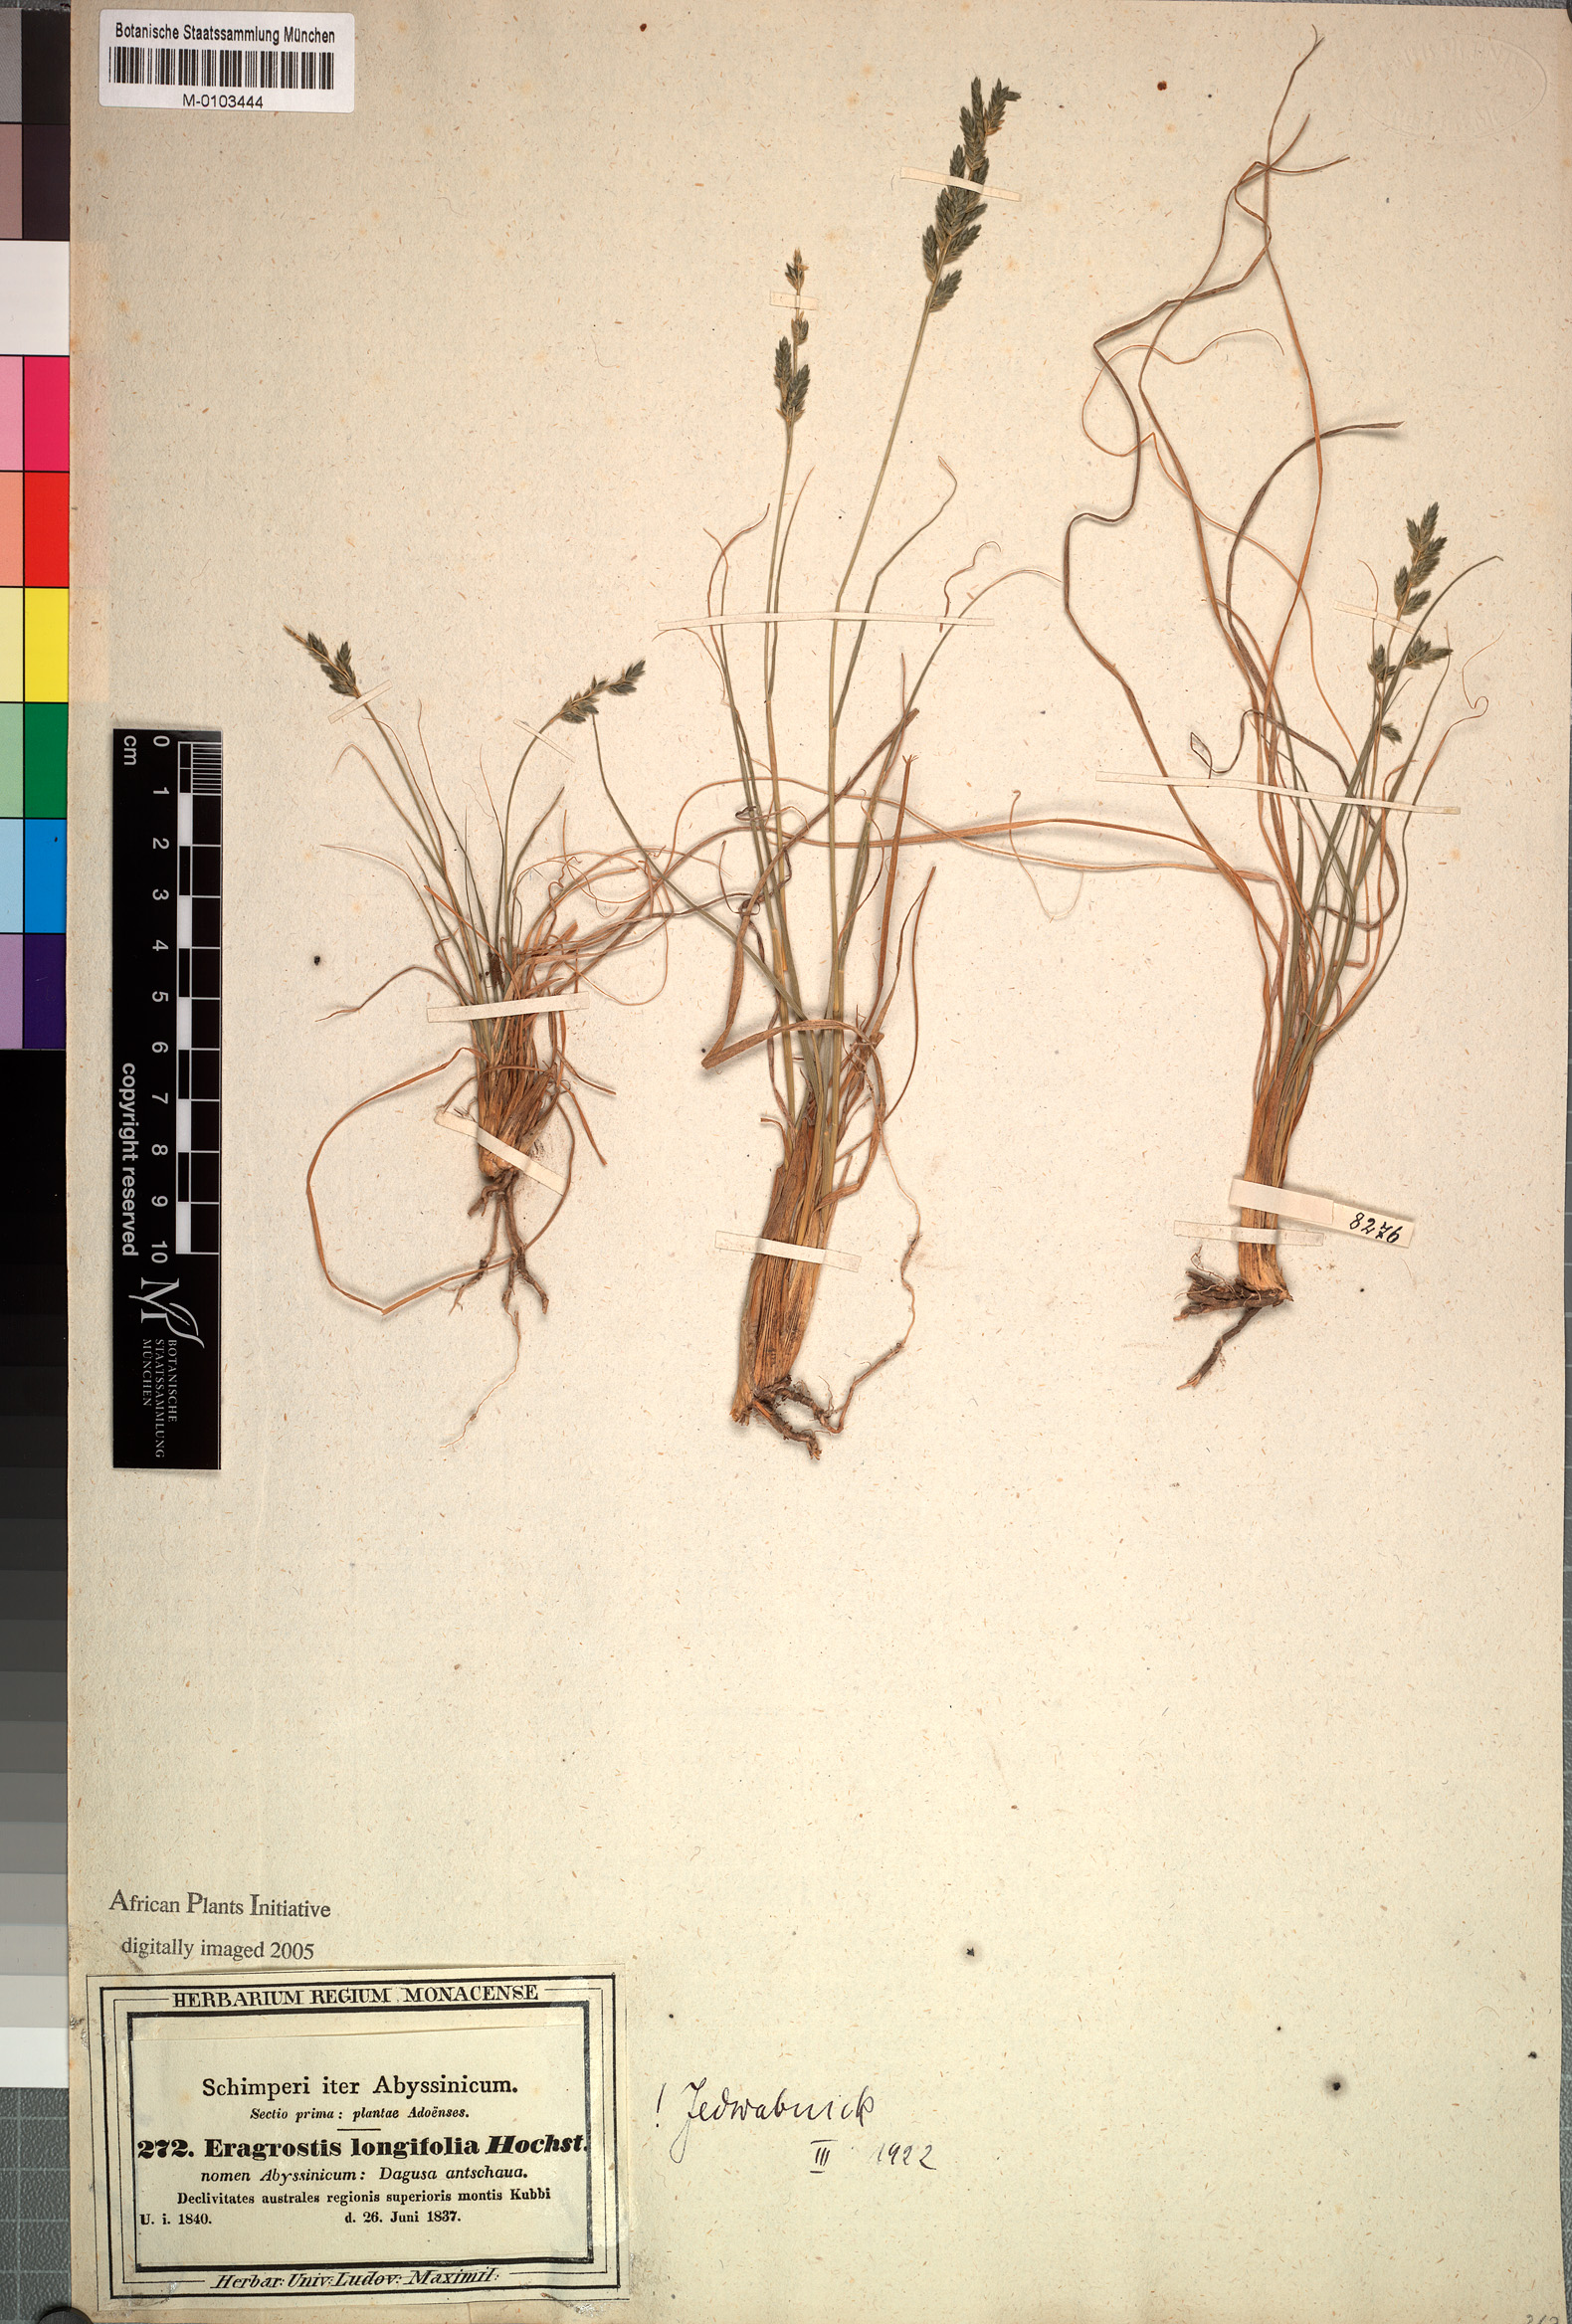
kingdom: Plantae
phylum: Tracheophyta
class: Liliopsida
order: Poales
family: Poaceae
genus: Eragrostis
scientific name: Eragrostis longifolia
